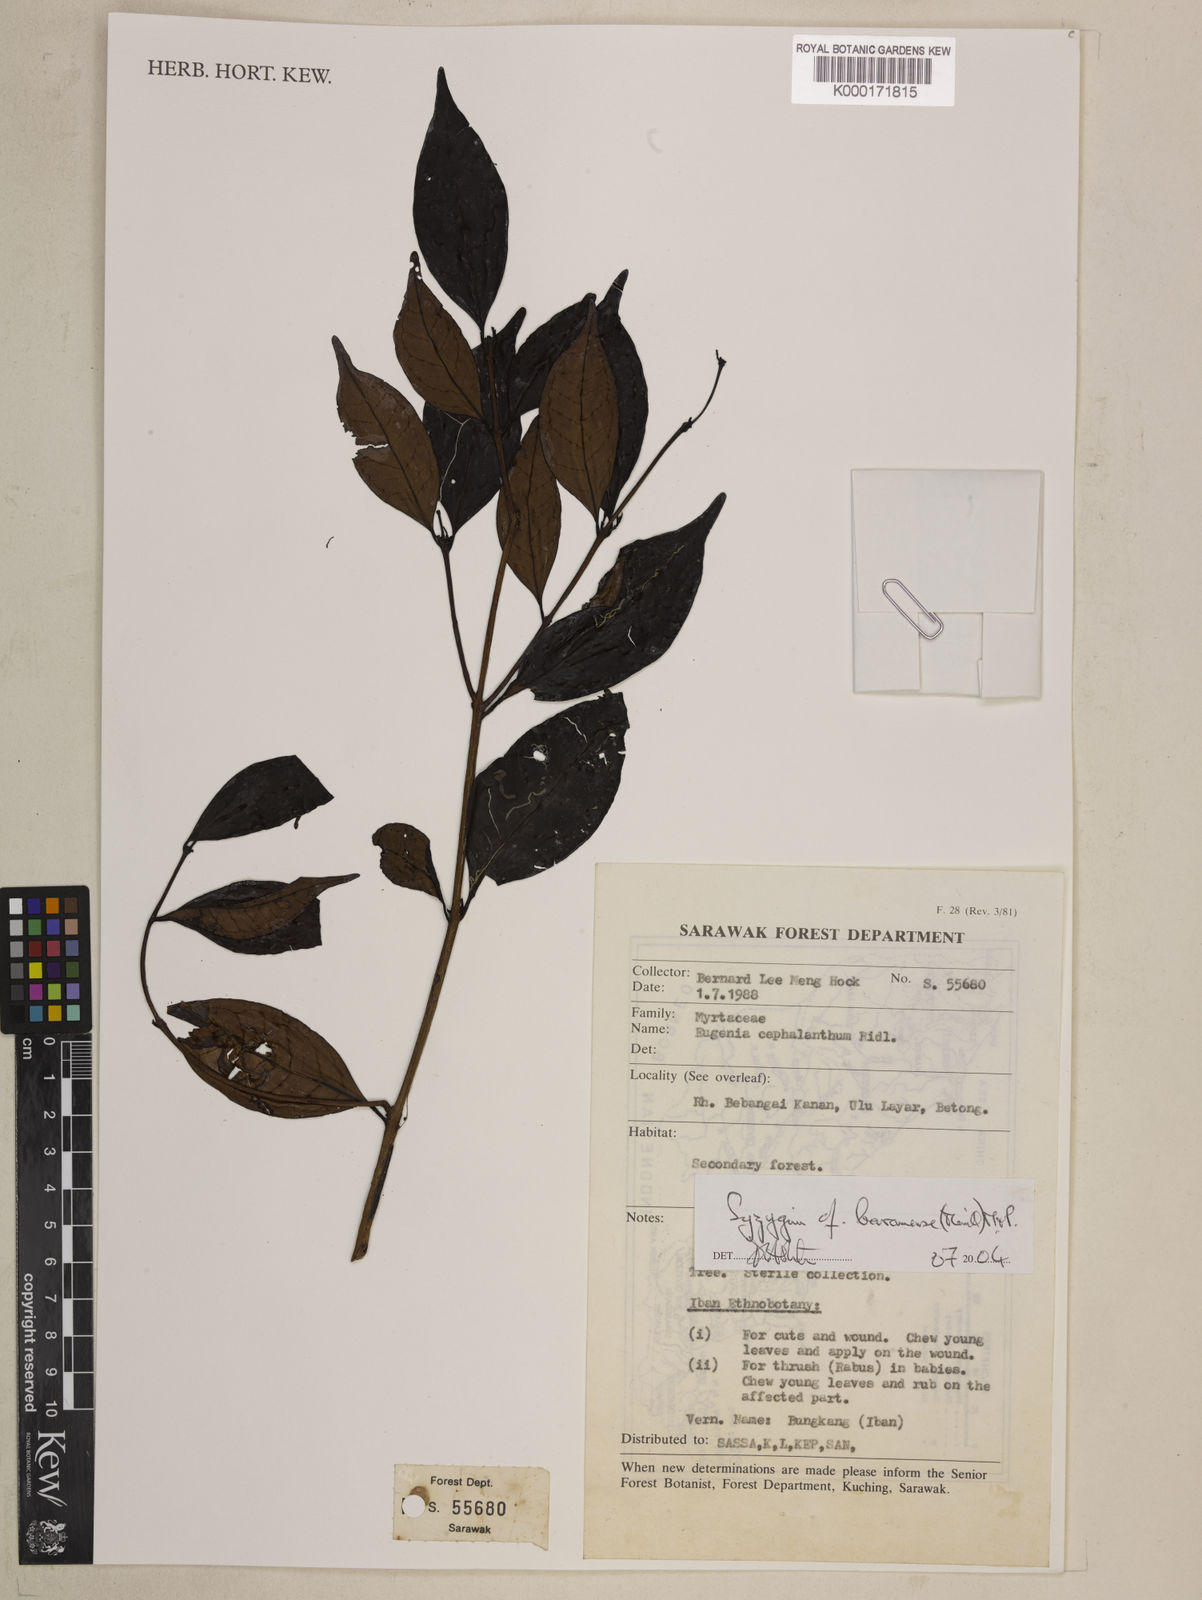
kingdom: Plantae
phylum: Tracheophyta
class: Magnoliopsida
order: Myrtales
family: Myrtaceae
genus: Syzygium
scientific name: Syzygium baramense
